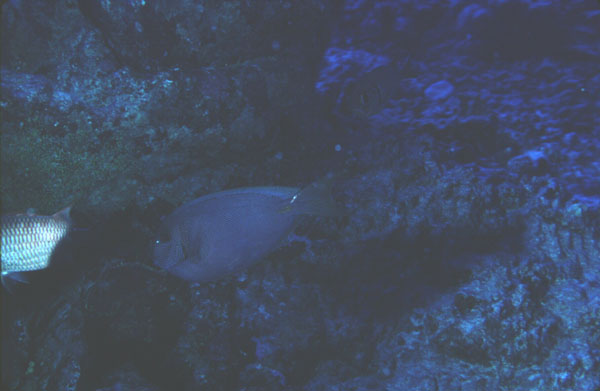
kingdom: Animalia
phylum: Chordata
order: Perciformes
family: Acanthuridae
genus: Acanthurus
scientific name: Acanthurus nubilus
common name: Bluelined surgeonfish
